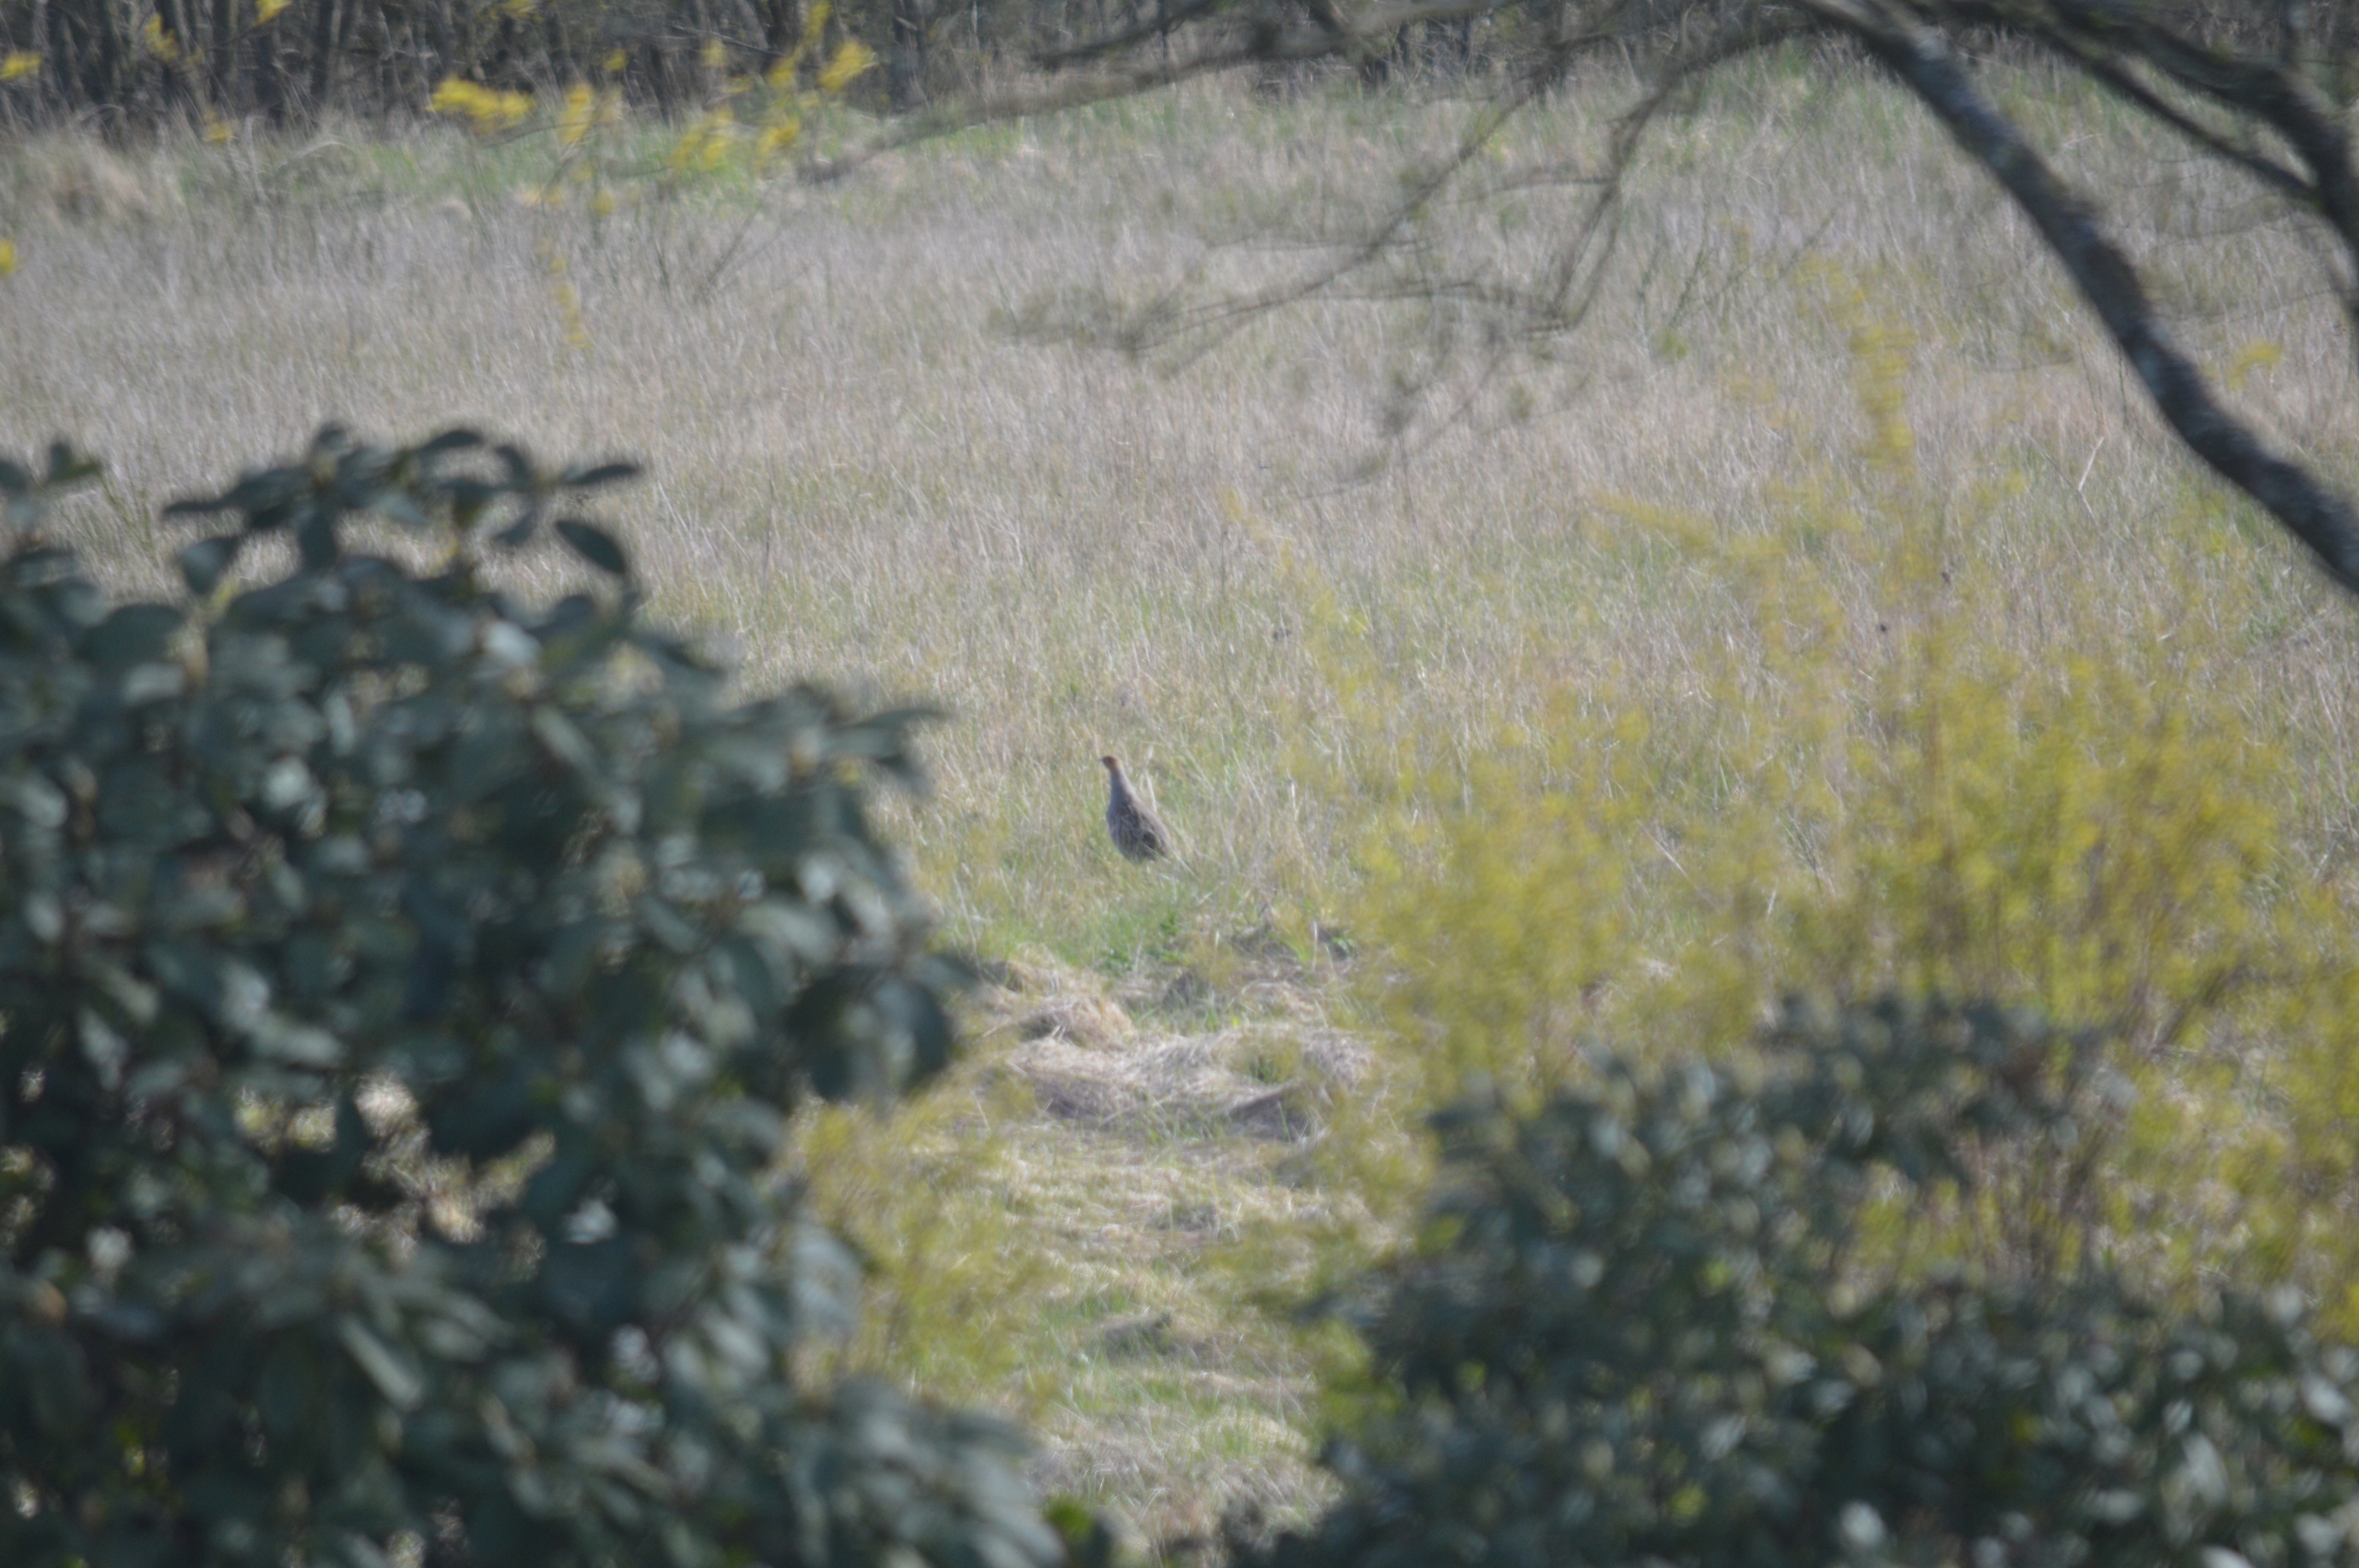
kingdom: Animalia
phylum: Chordata
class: Aves
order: Galliformes
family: Phasianidae
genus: Perdix
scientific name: Perdix perdix
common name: Agerhøne
